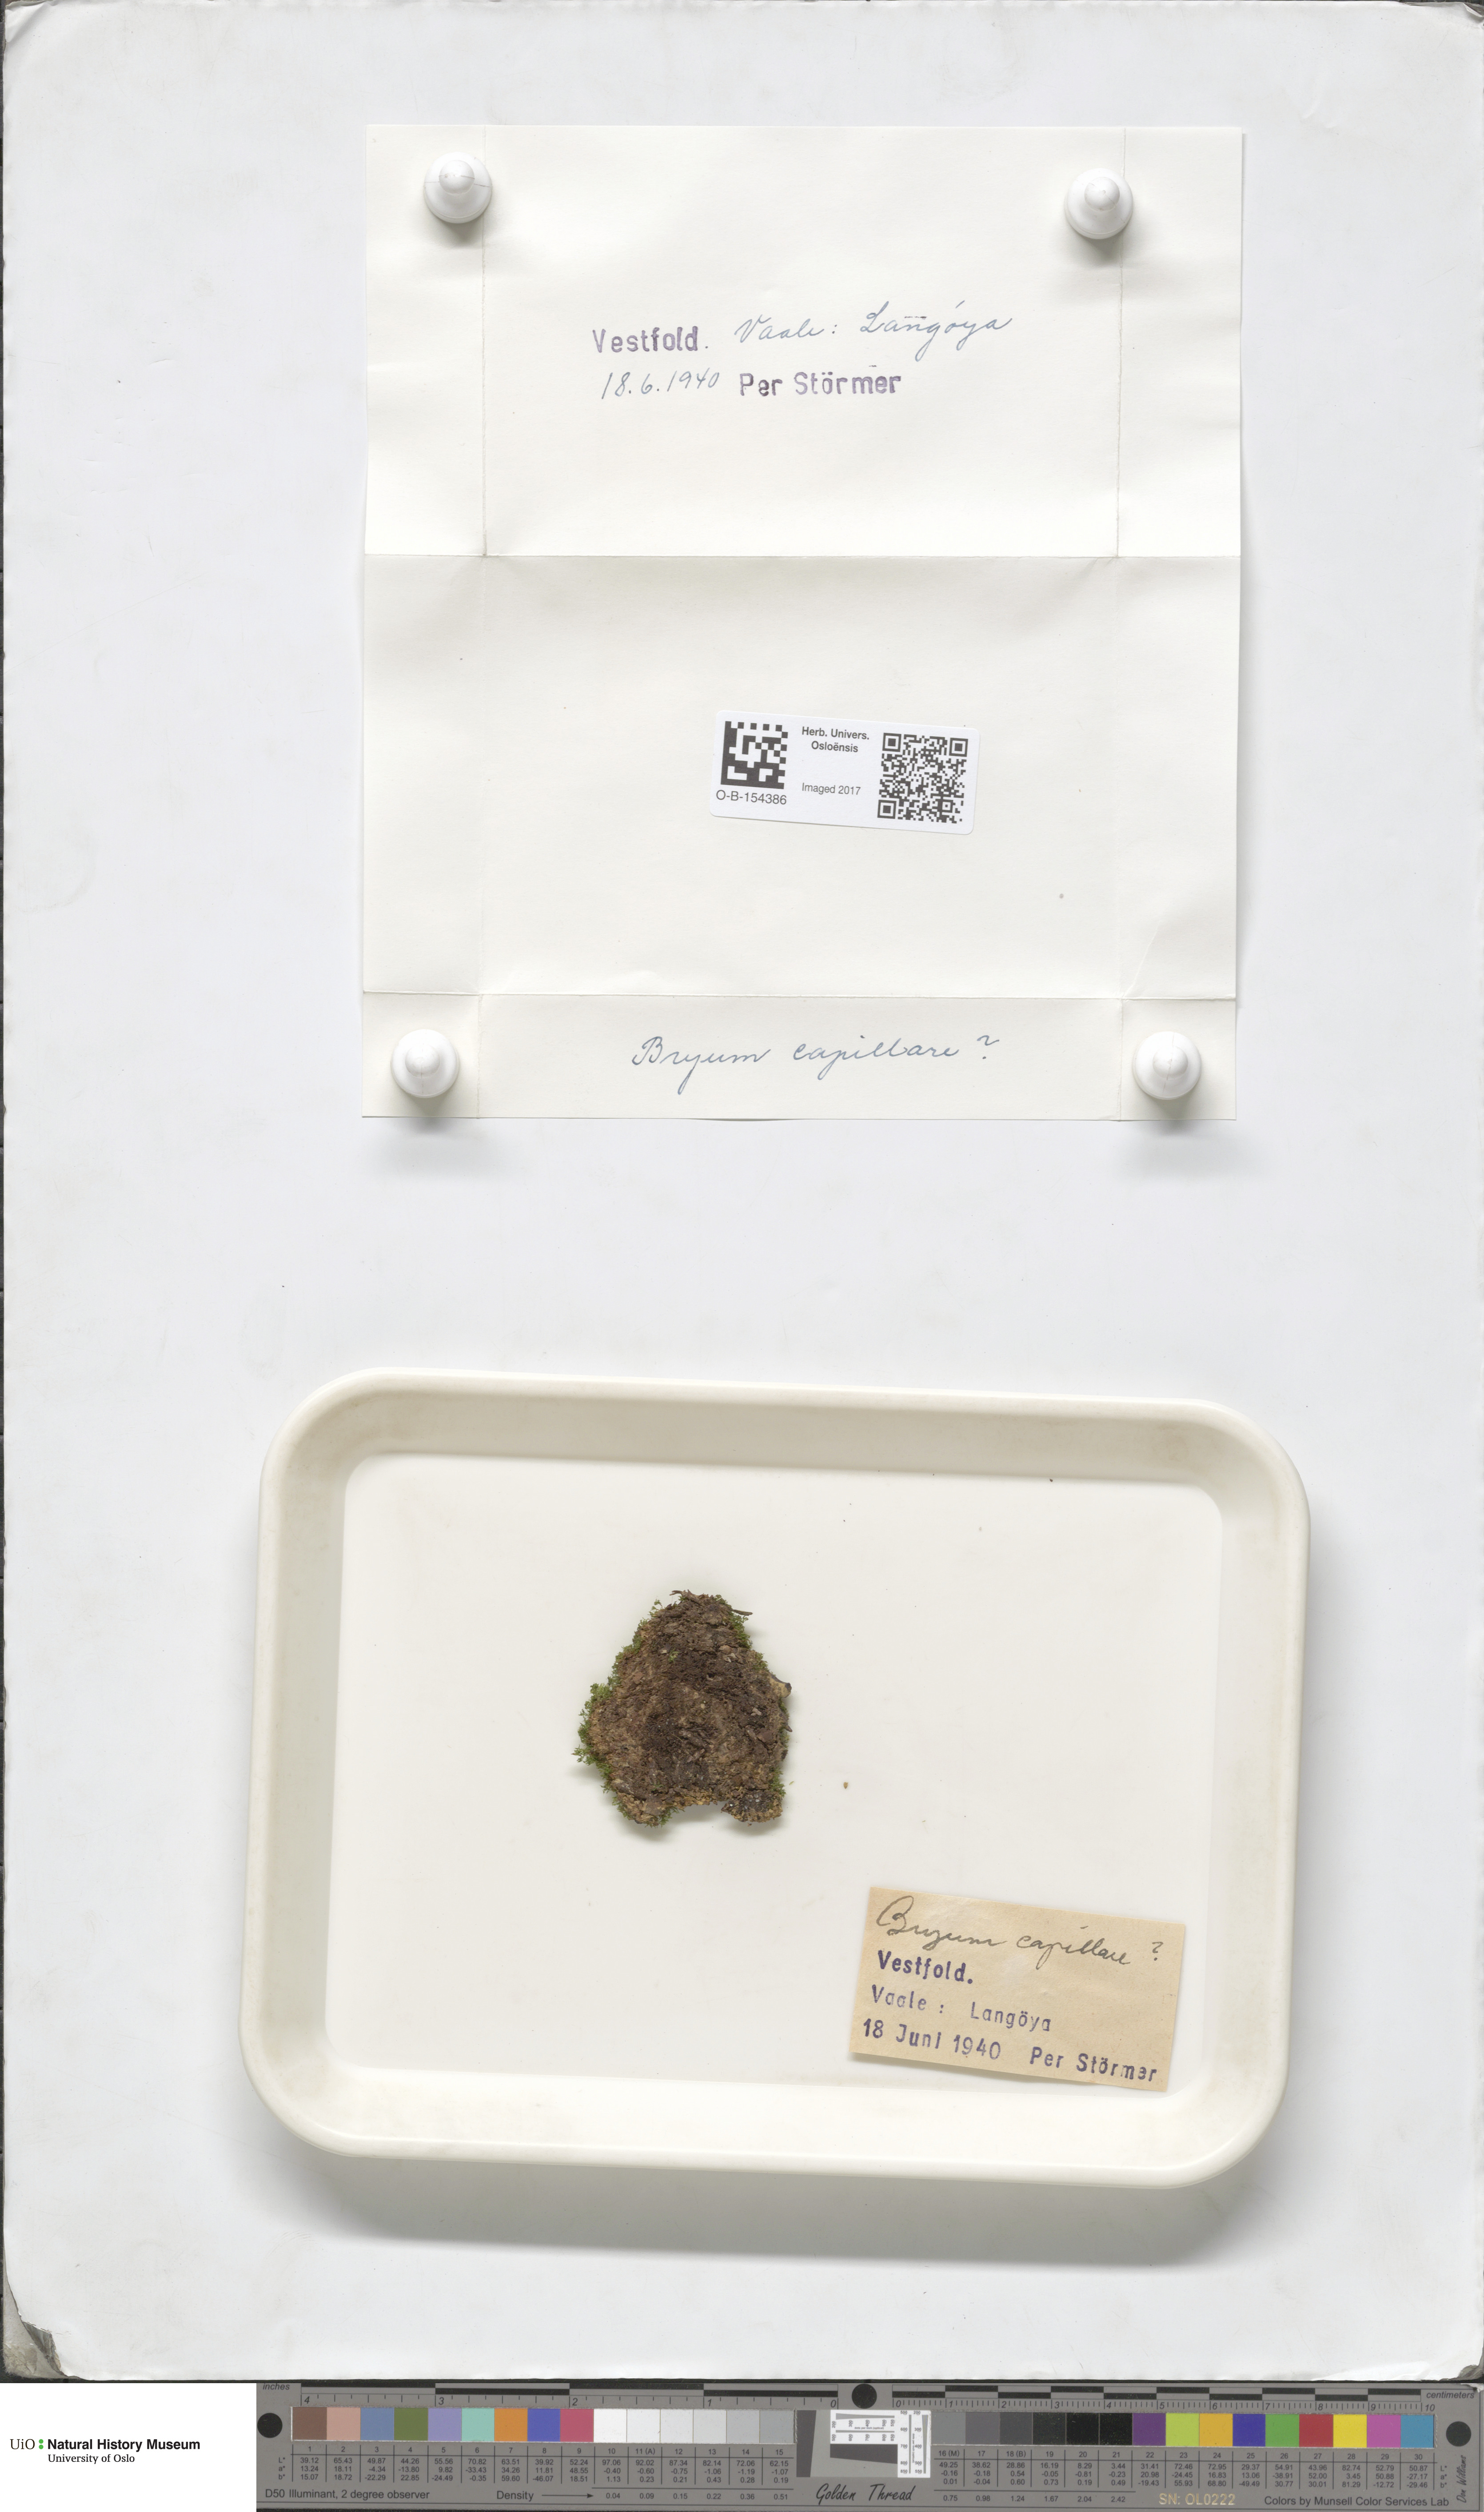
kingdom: Plantae
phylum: Bryophyta
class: Bryopsida
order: Bryales
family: Bryaceae
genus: Rosulabryum
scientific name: Rosulabryum capillare
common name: Capillary thread-moss
